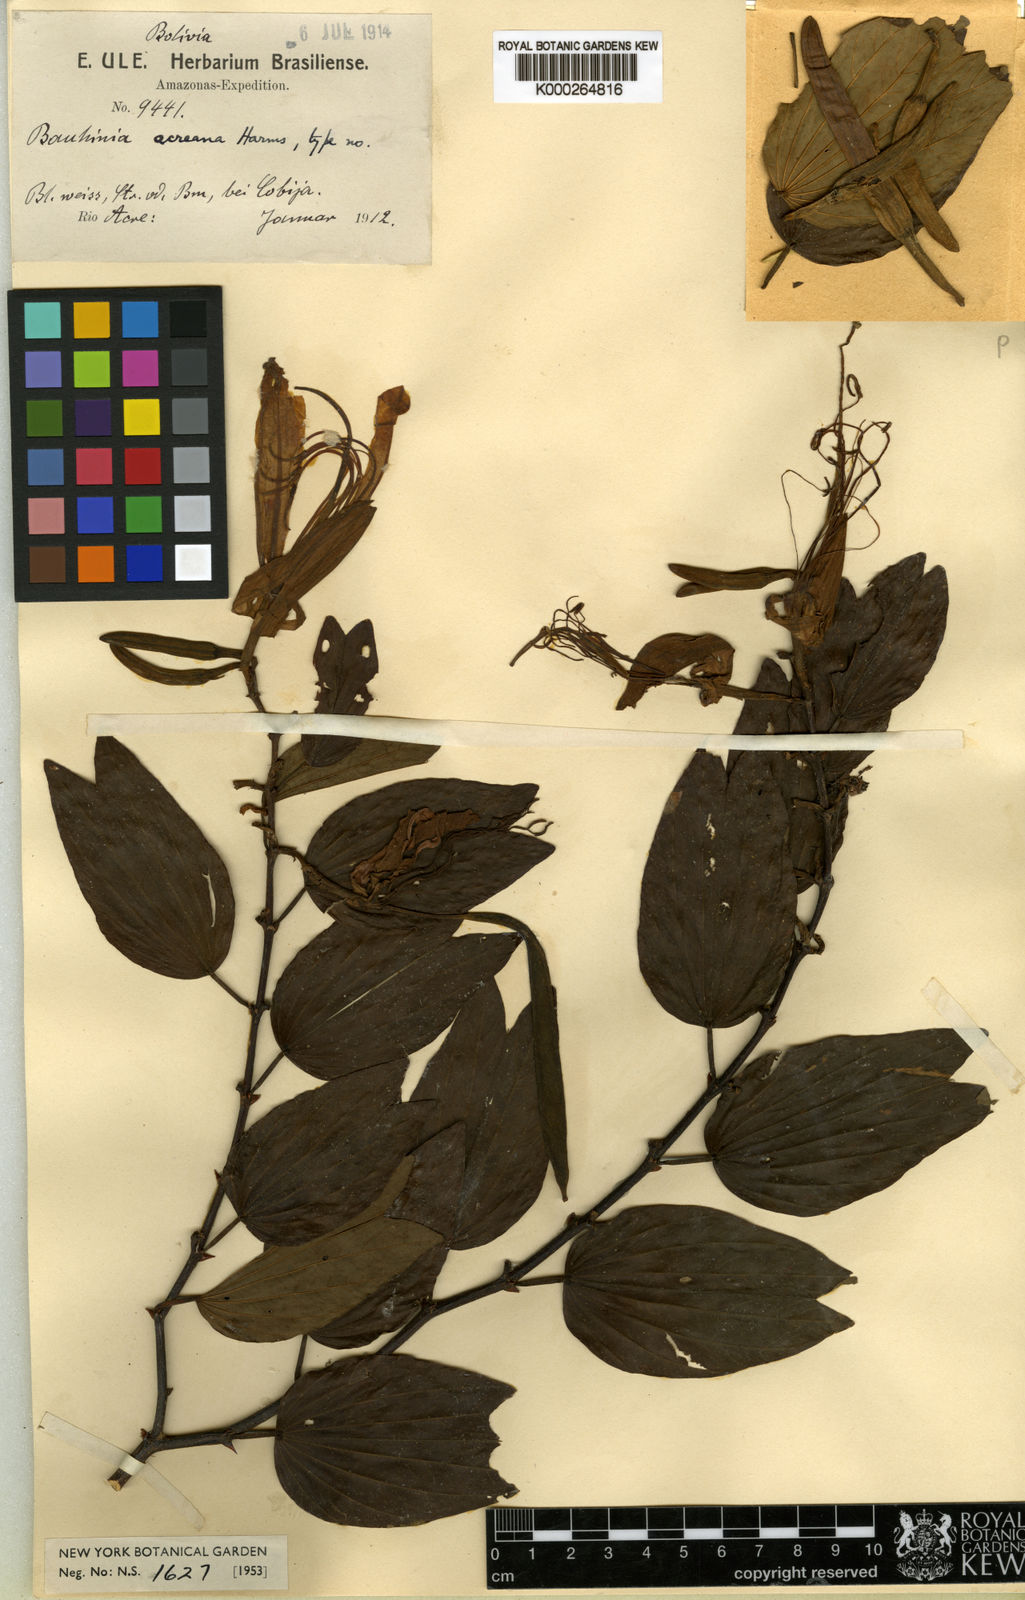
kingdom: Plantae
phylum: Tracheophyta
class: Magnoliopsida
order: Fabales
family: Fabaceae
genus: Bauhinia
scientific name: Bauhinia acreana
